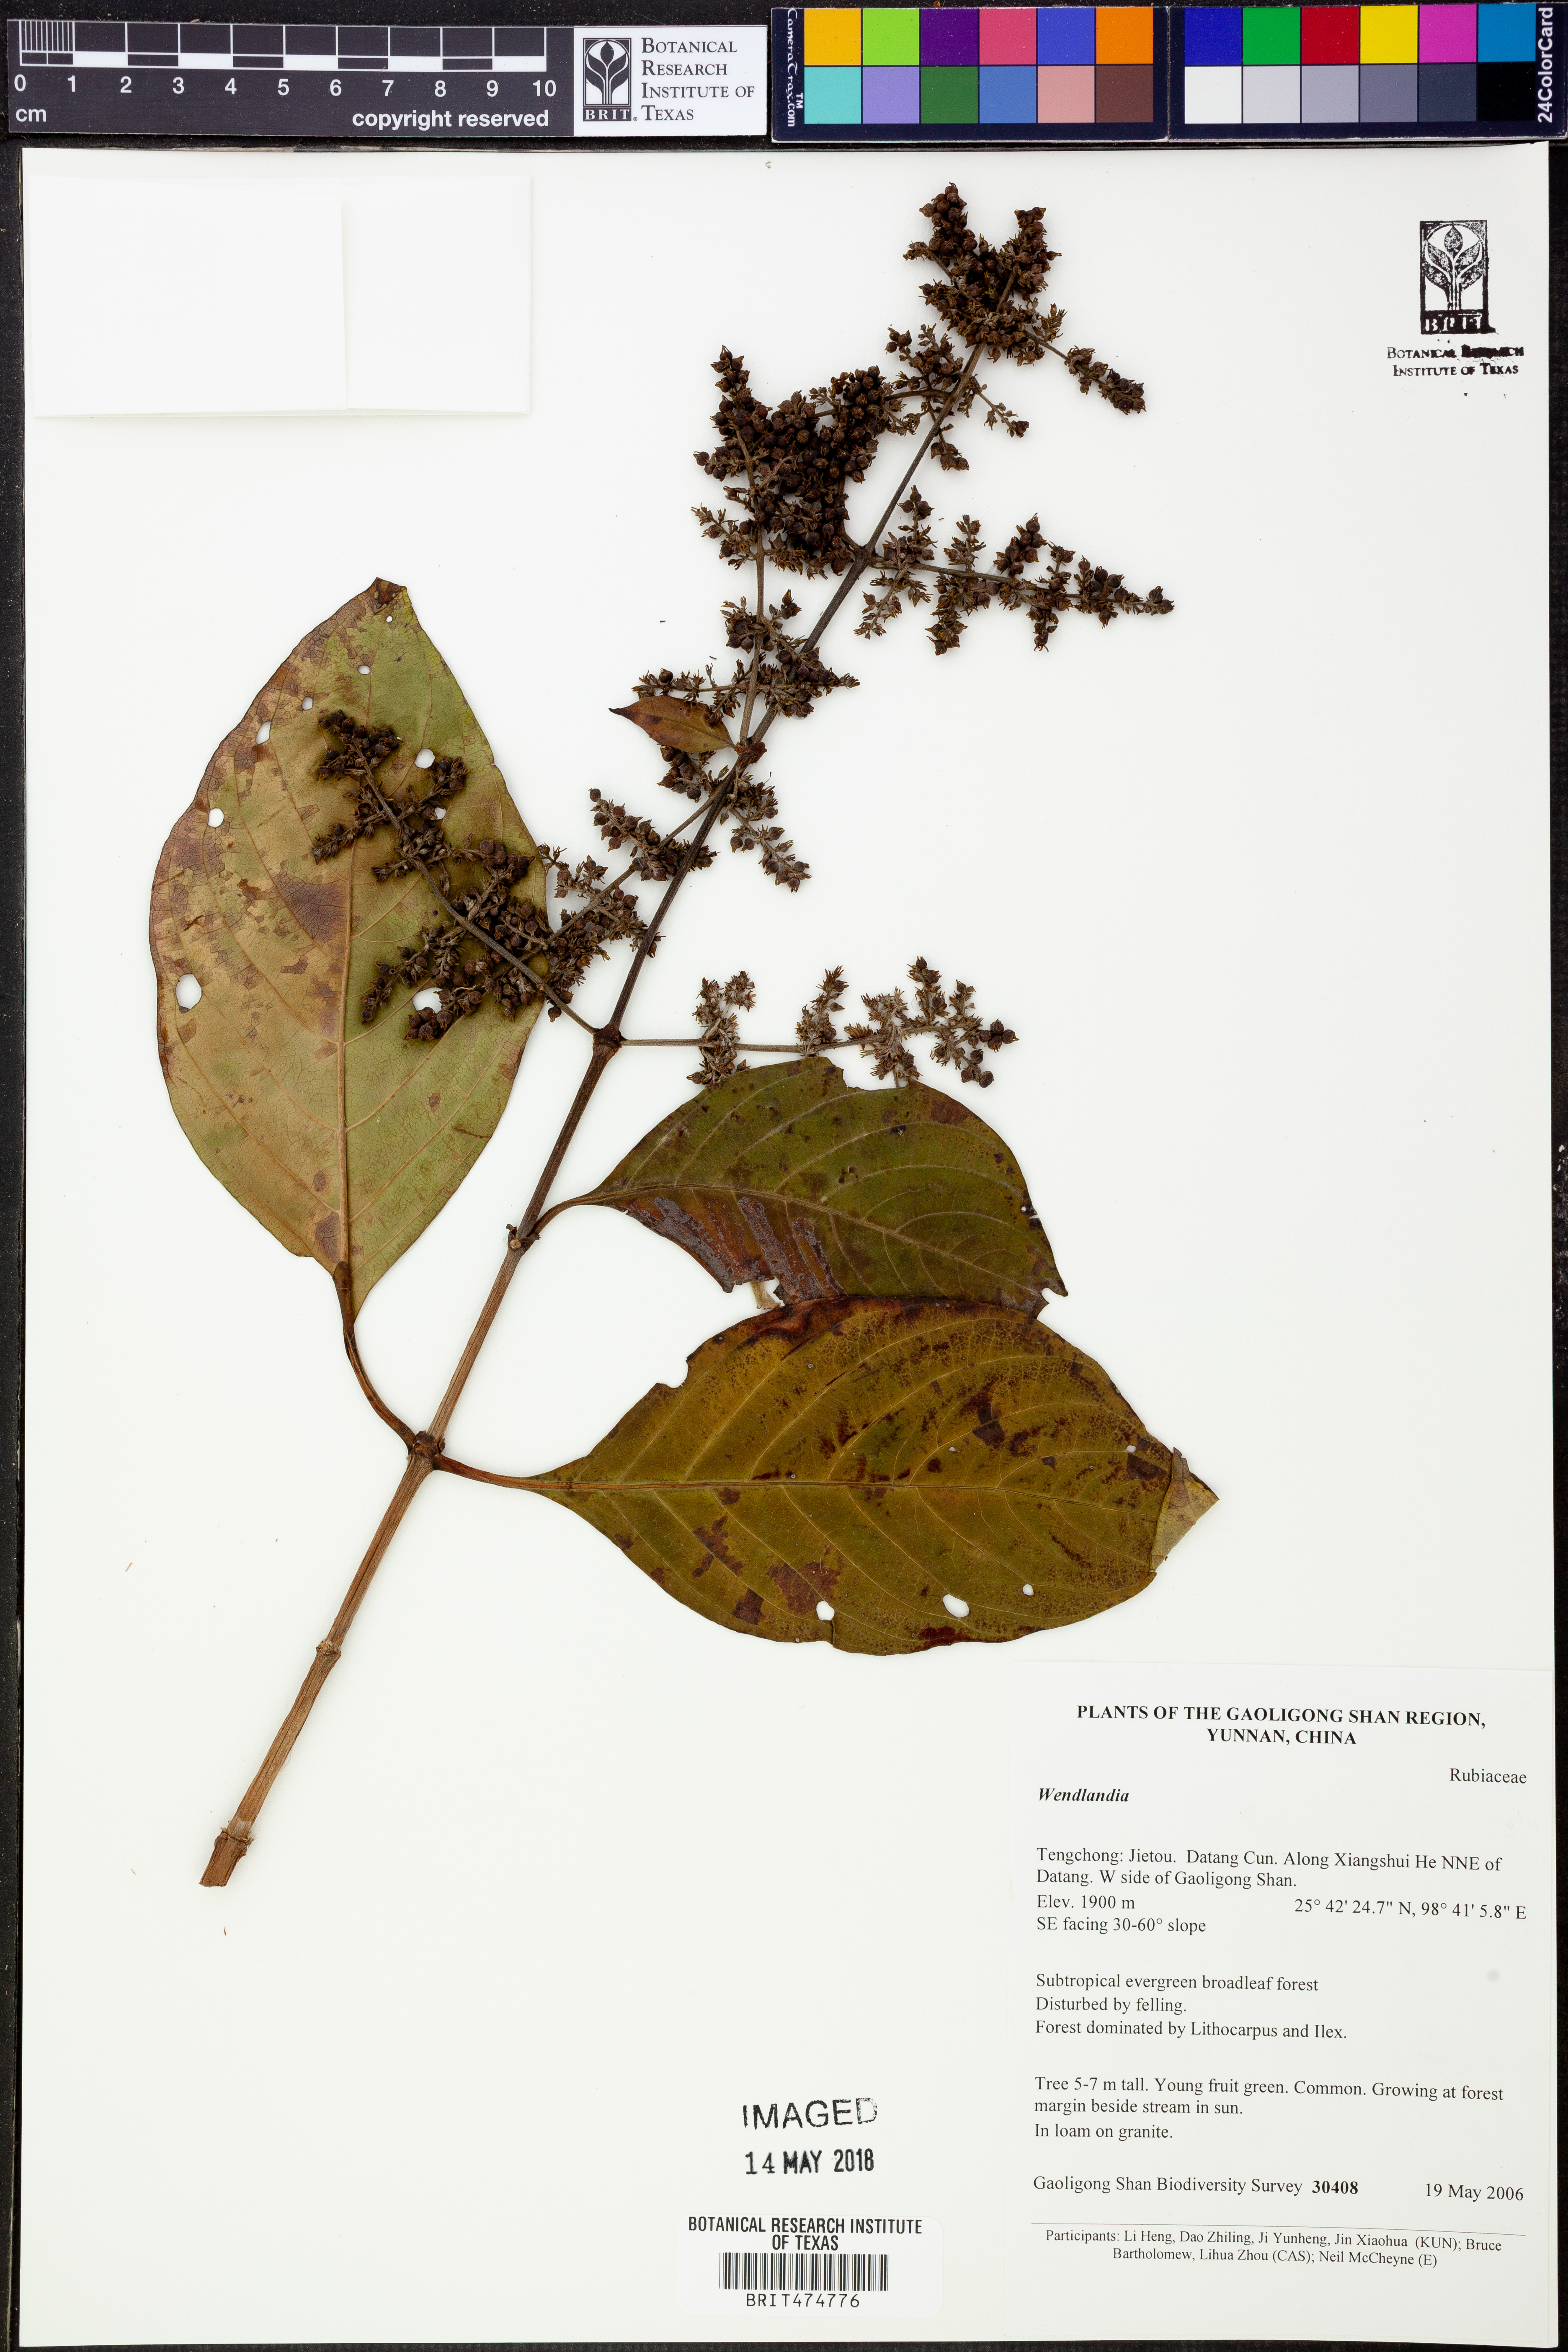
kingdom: Plantae
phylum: Tracheophyta
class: Magnoliopsida
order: Gentianales
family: Rubiaceae
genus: Wendlandia
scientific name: Wendlandia
